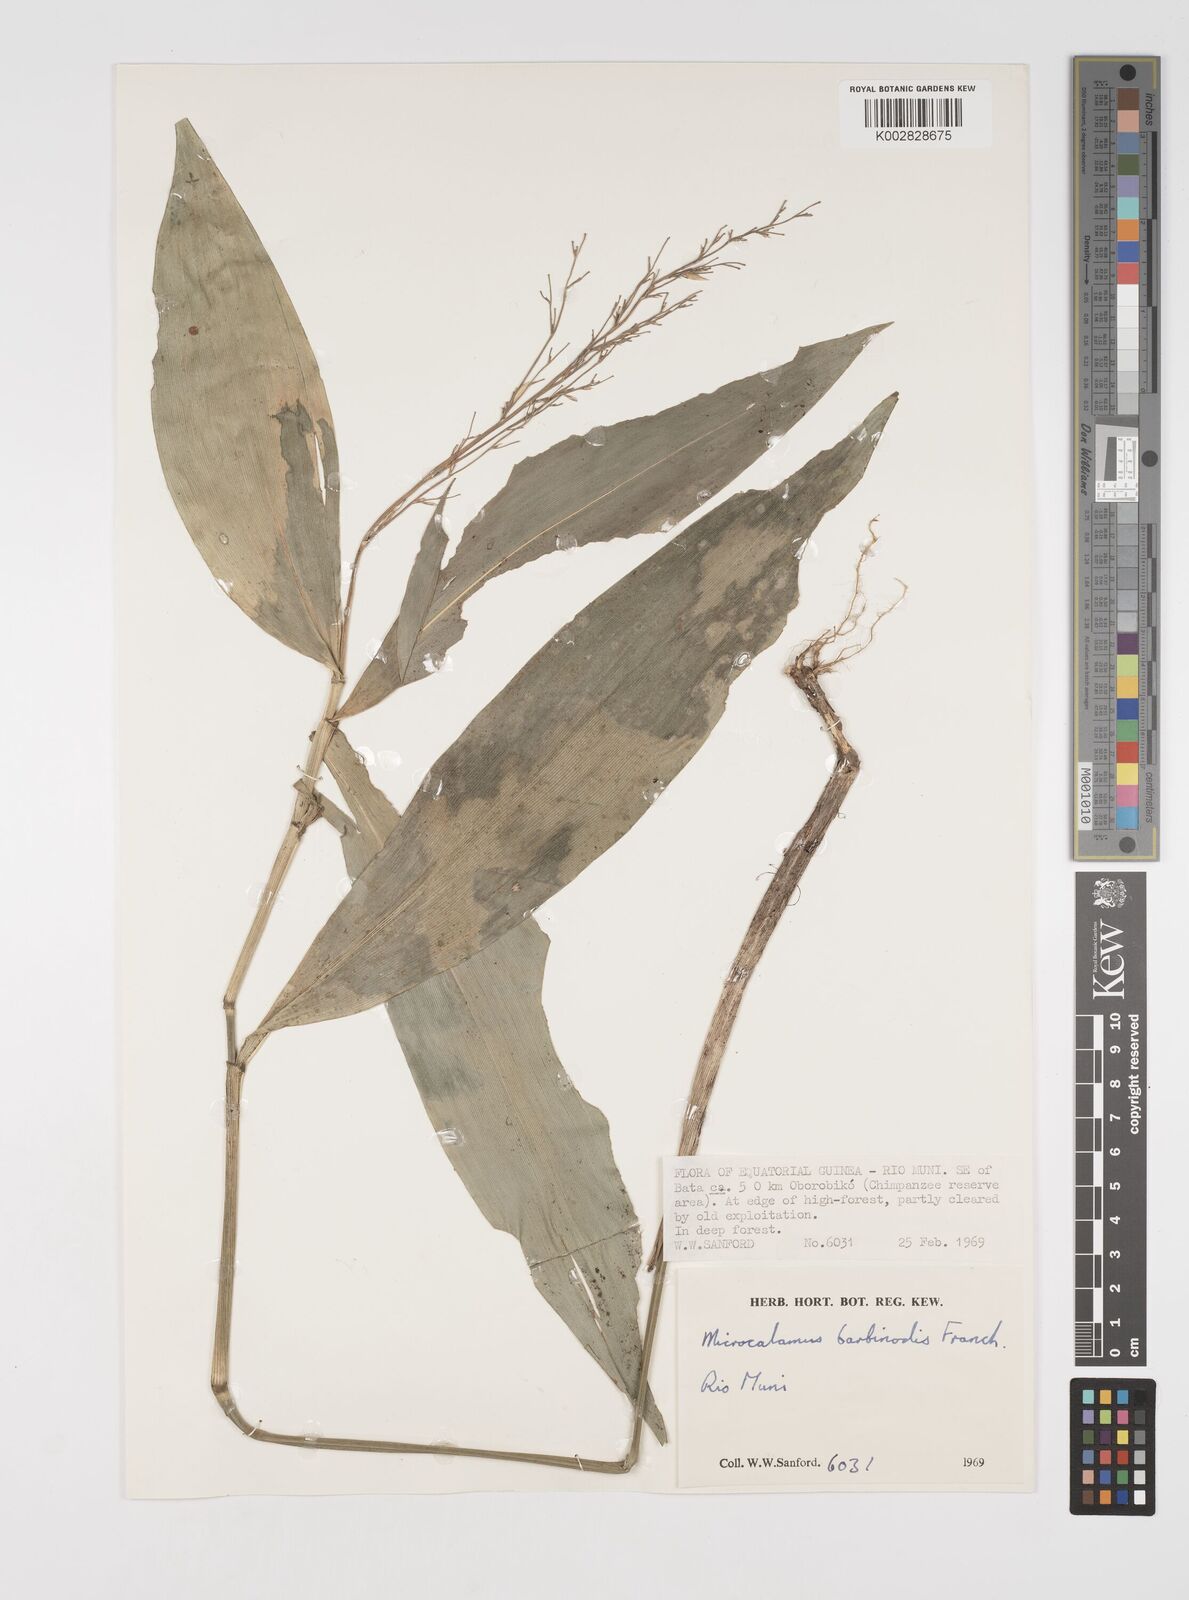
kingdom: Plantae
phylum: Tracheophyta
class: Liliopsida
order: Poales
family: Poaceae
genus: Microcalamus
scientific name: Microcalamus barbinodis
